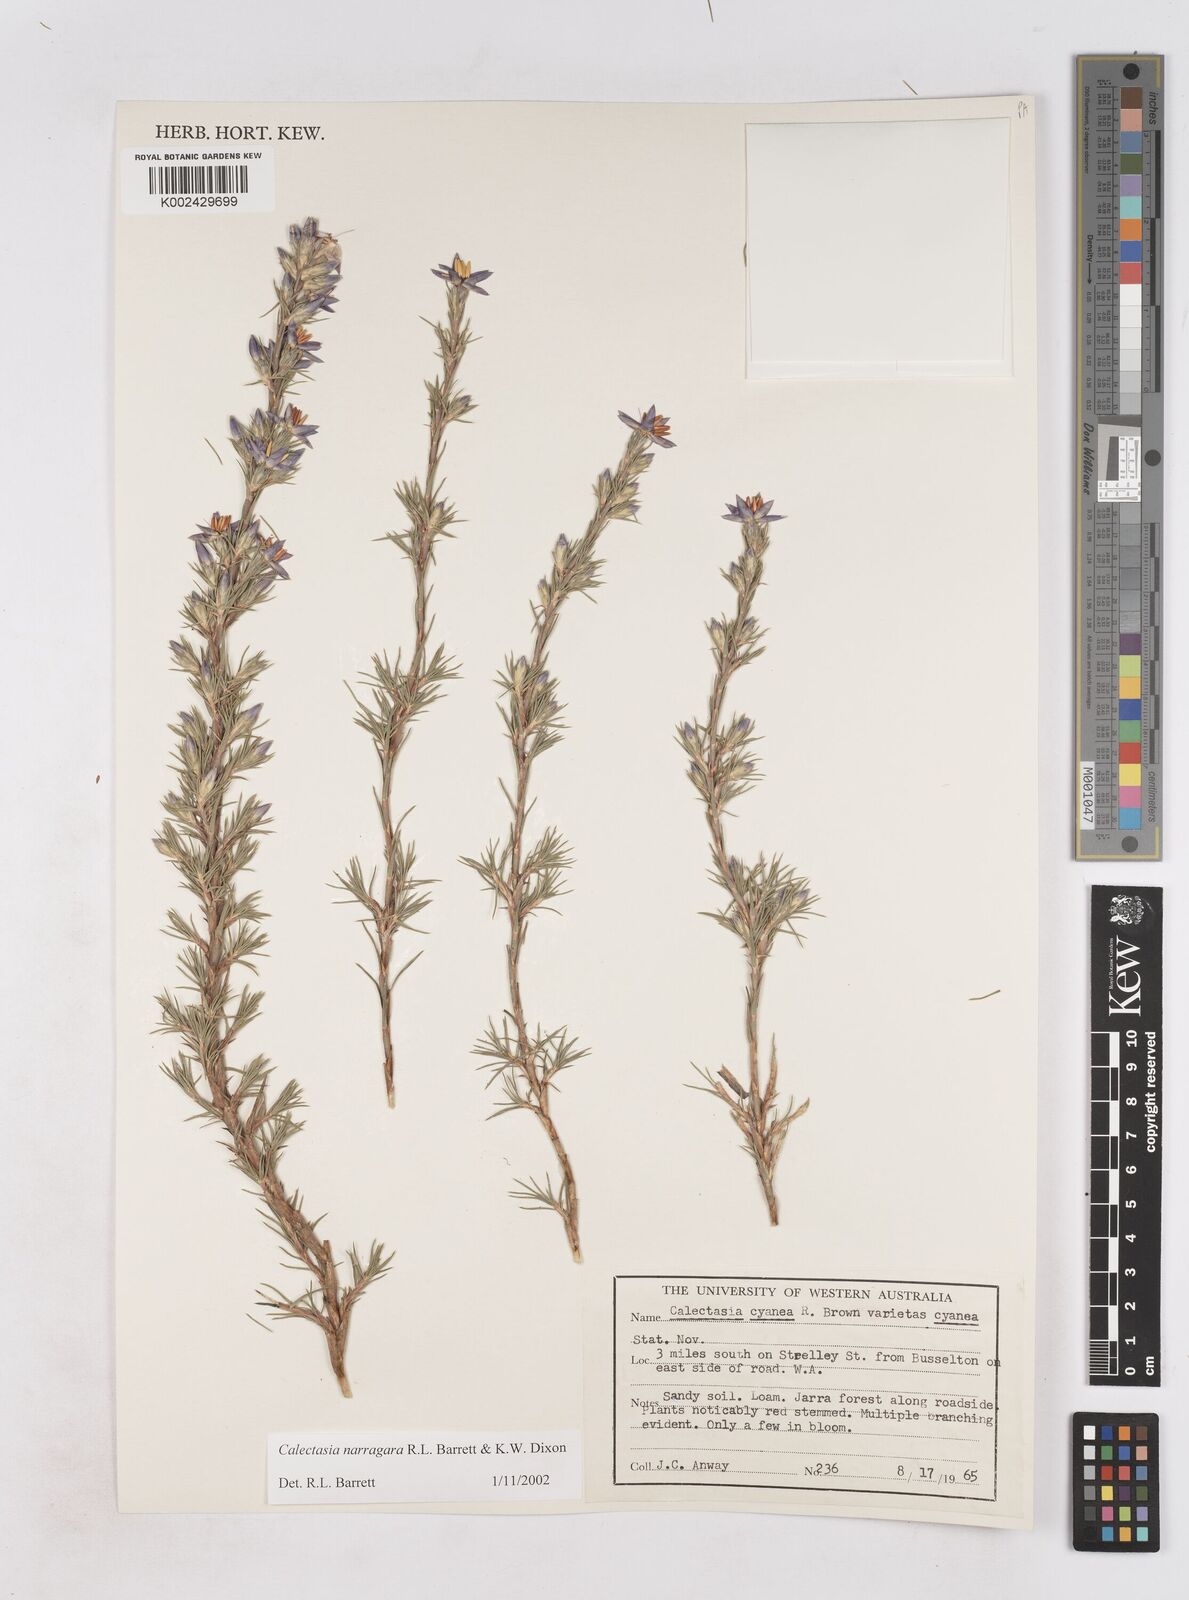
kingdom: Plantae
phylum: Tracheophyta
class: Liliopsida
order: Arecales
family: Dasypogonaceae
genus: Calectasia
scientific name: Calectasia narragara
